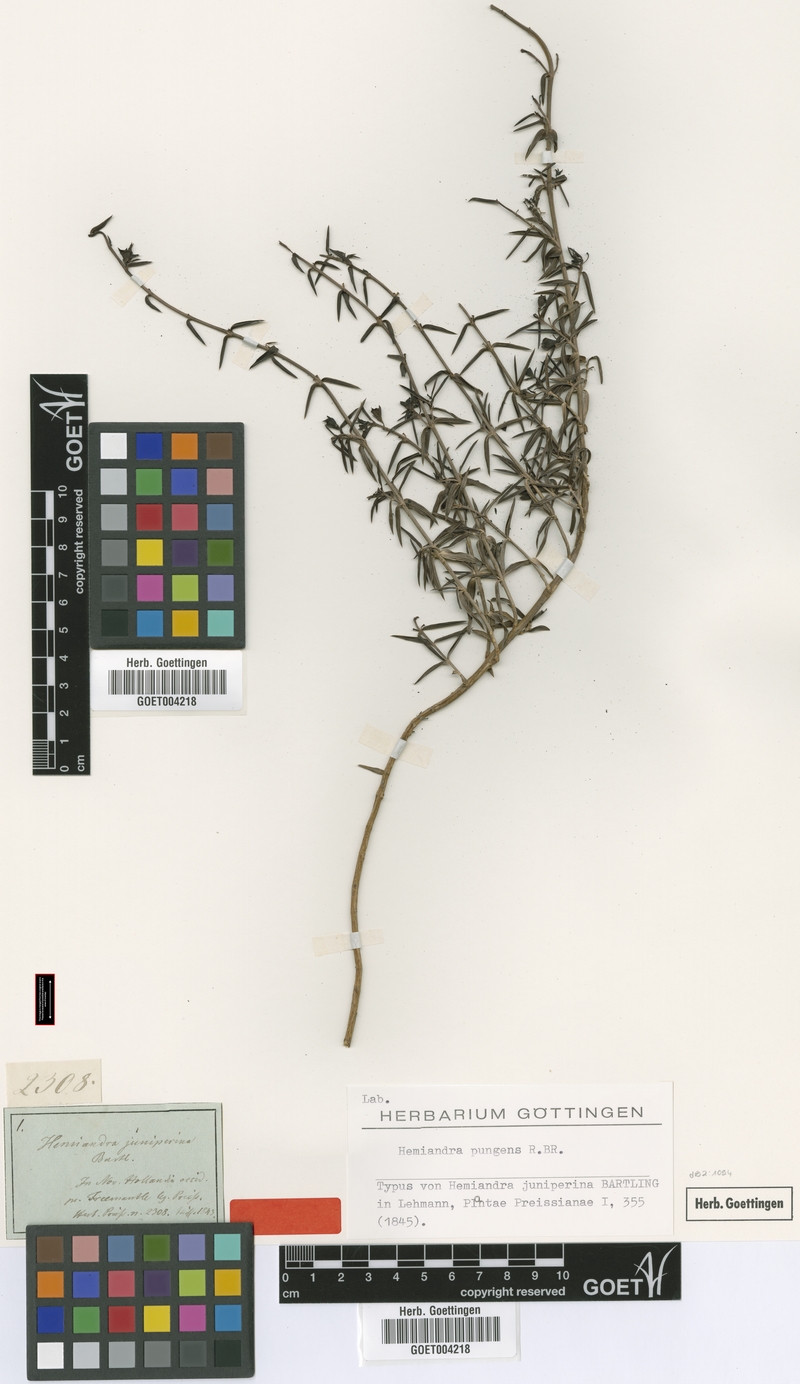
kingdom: Plantae
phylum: Tracheophyta
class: Magnoliopsida
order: Lamiales
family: Lamiaceae
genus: Hemiandra
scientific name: Hemiandra pungens
